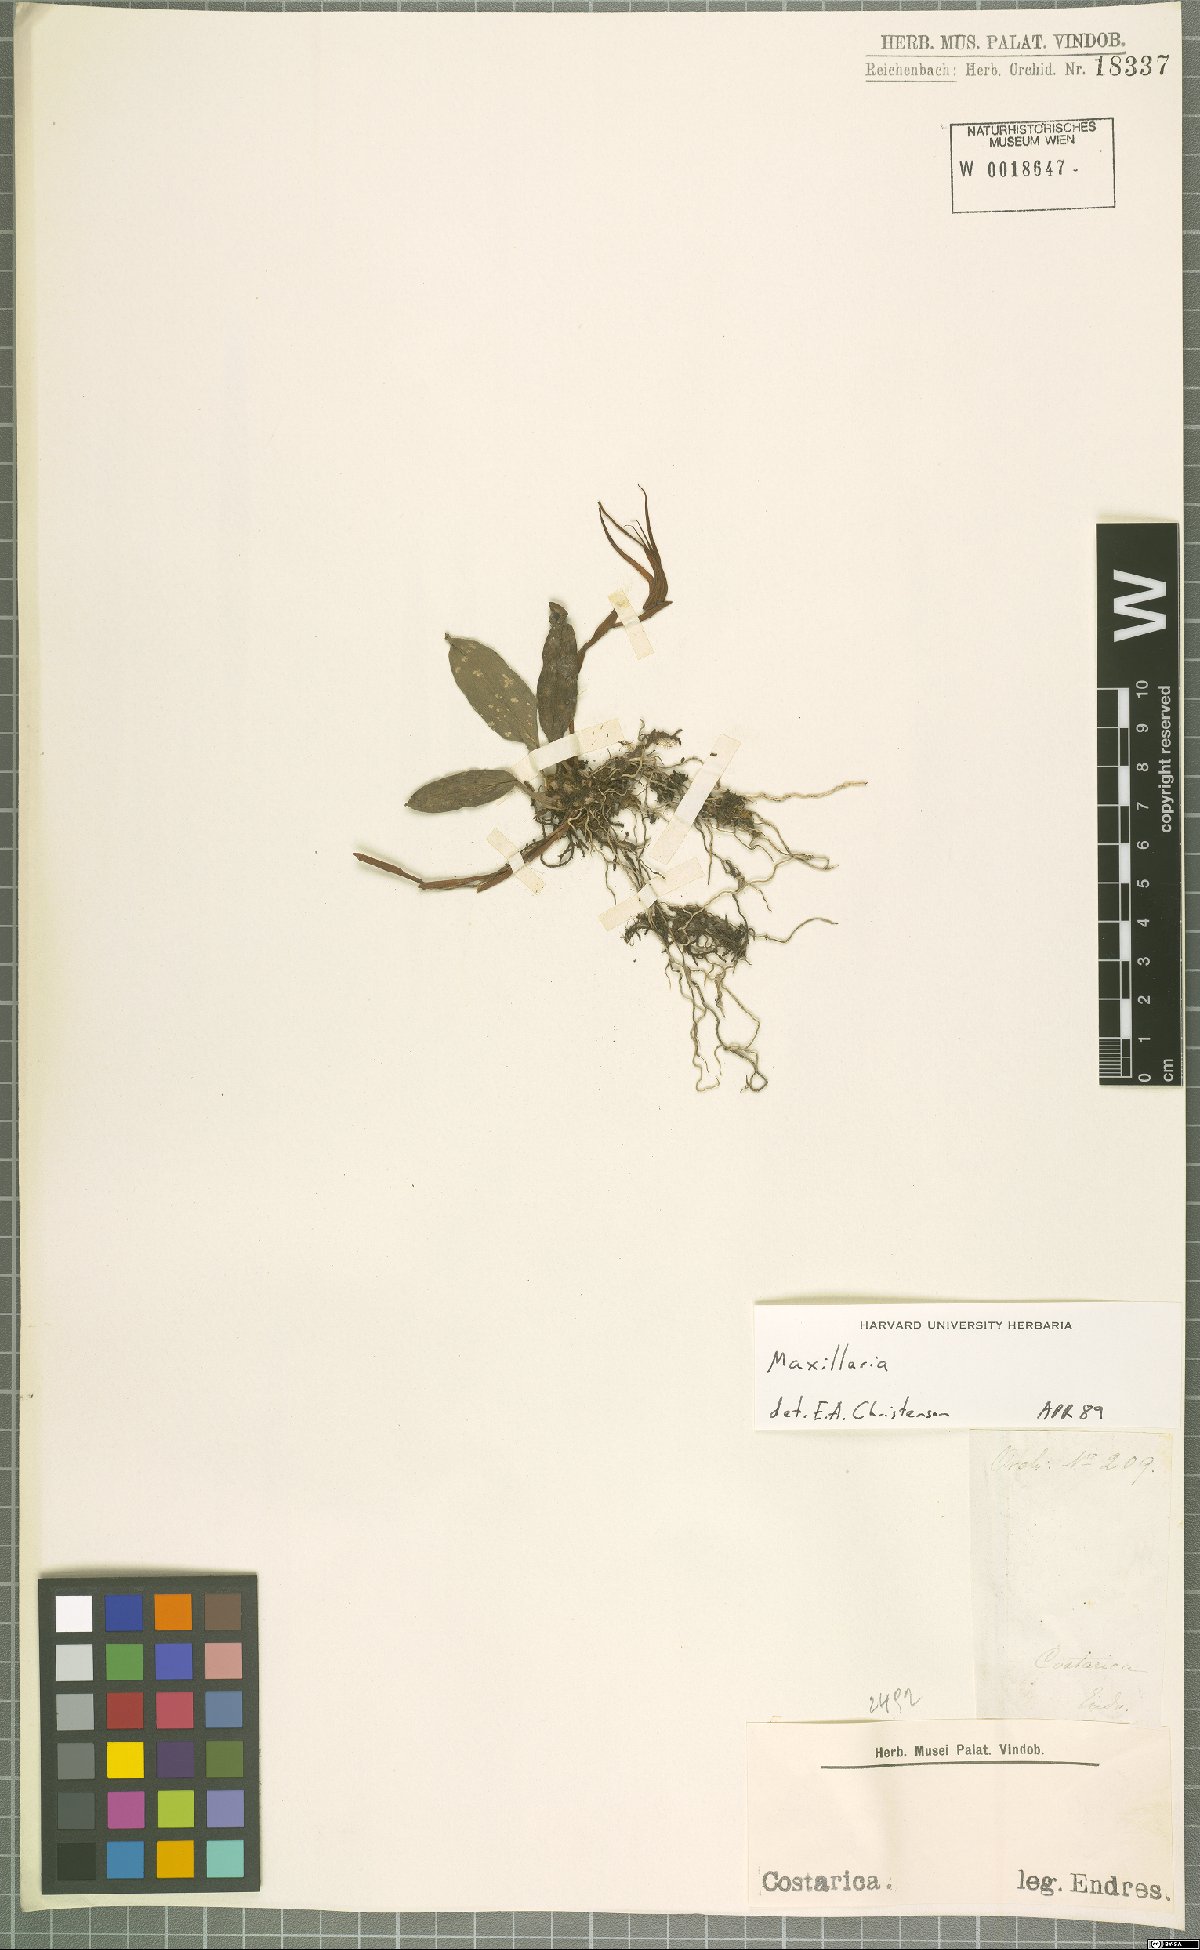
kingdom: Plantae
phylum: Tracheophyta
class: Liliopsida
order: Asparagales
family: Orchidaceae
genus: Maxillaria
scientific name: Maxillaria
